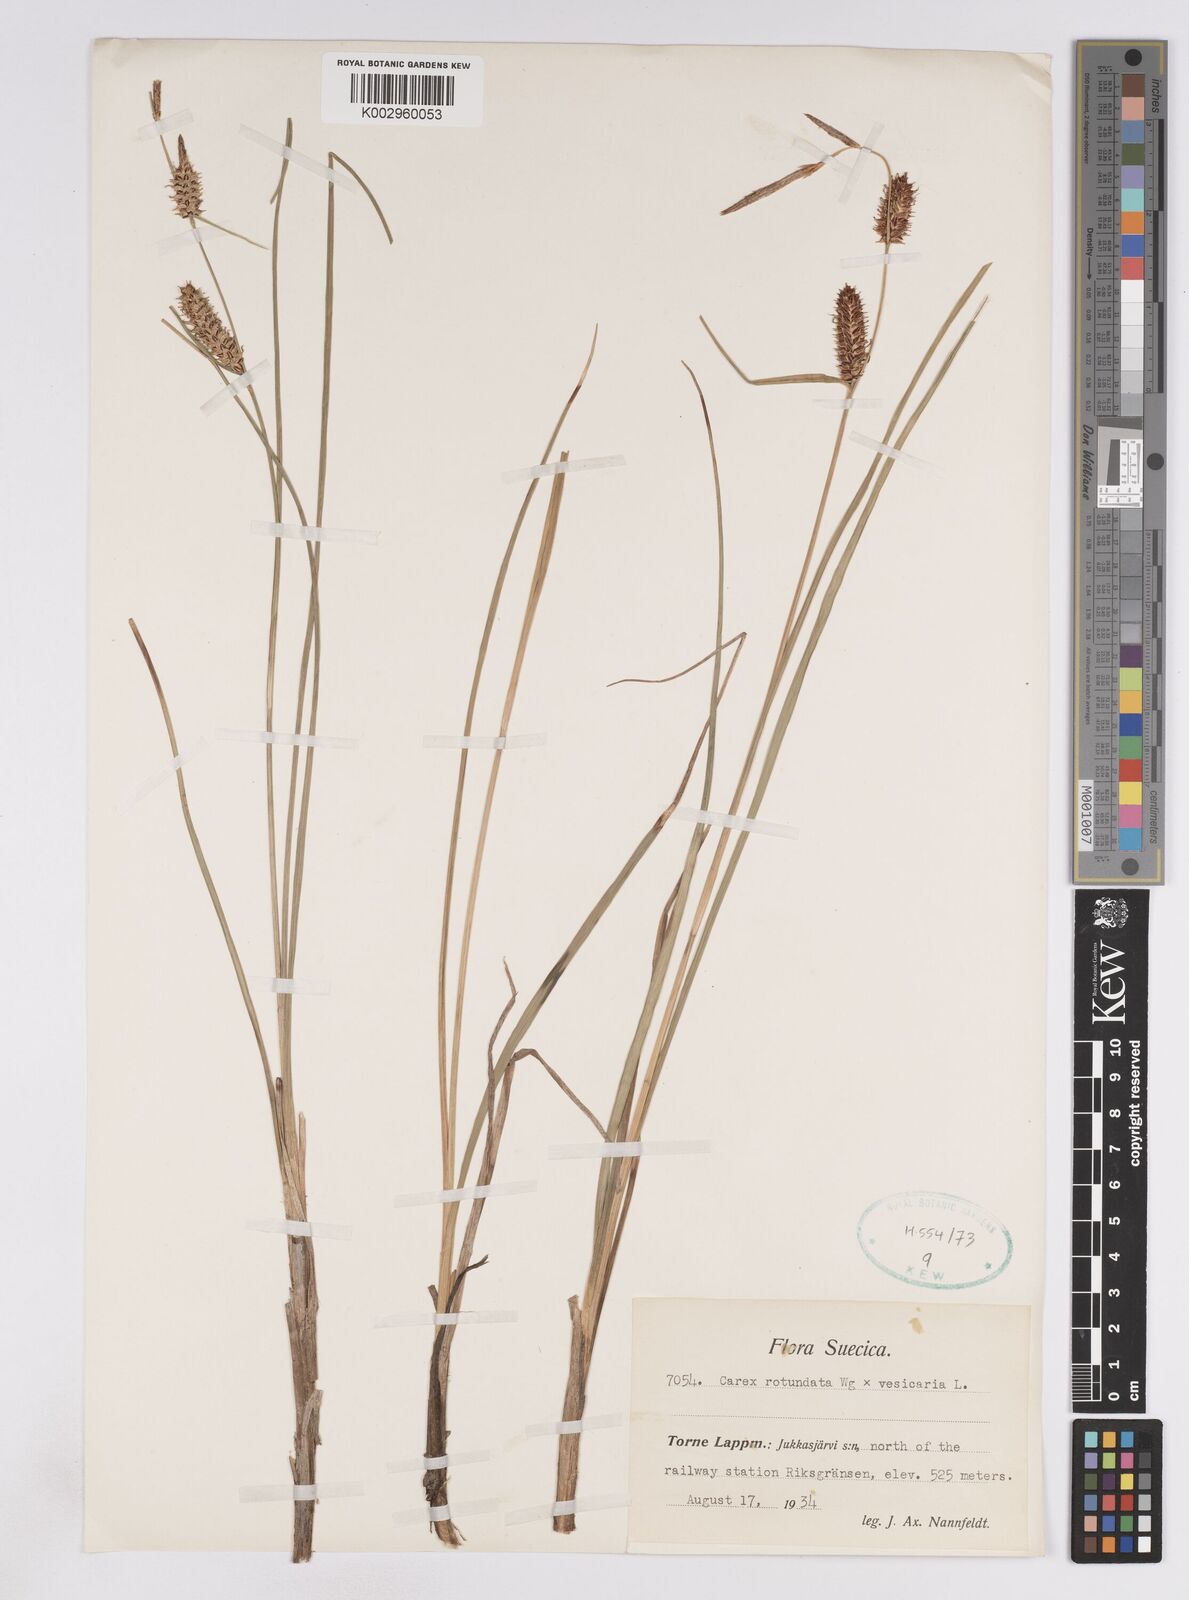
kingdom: Plantae
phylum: Tracheophyta
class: Liliopsida
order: Poales
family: Cyperaceae
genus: Carex
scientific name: Carex
